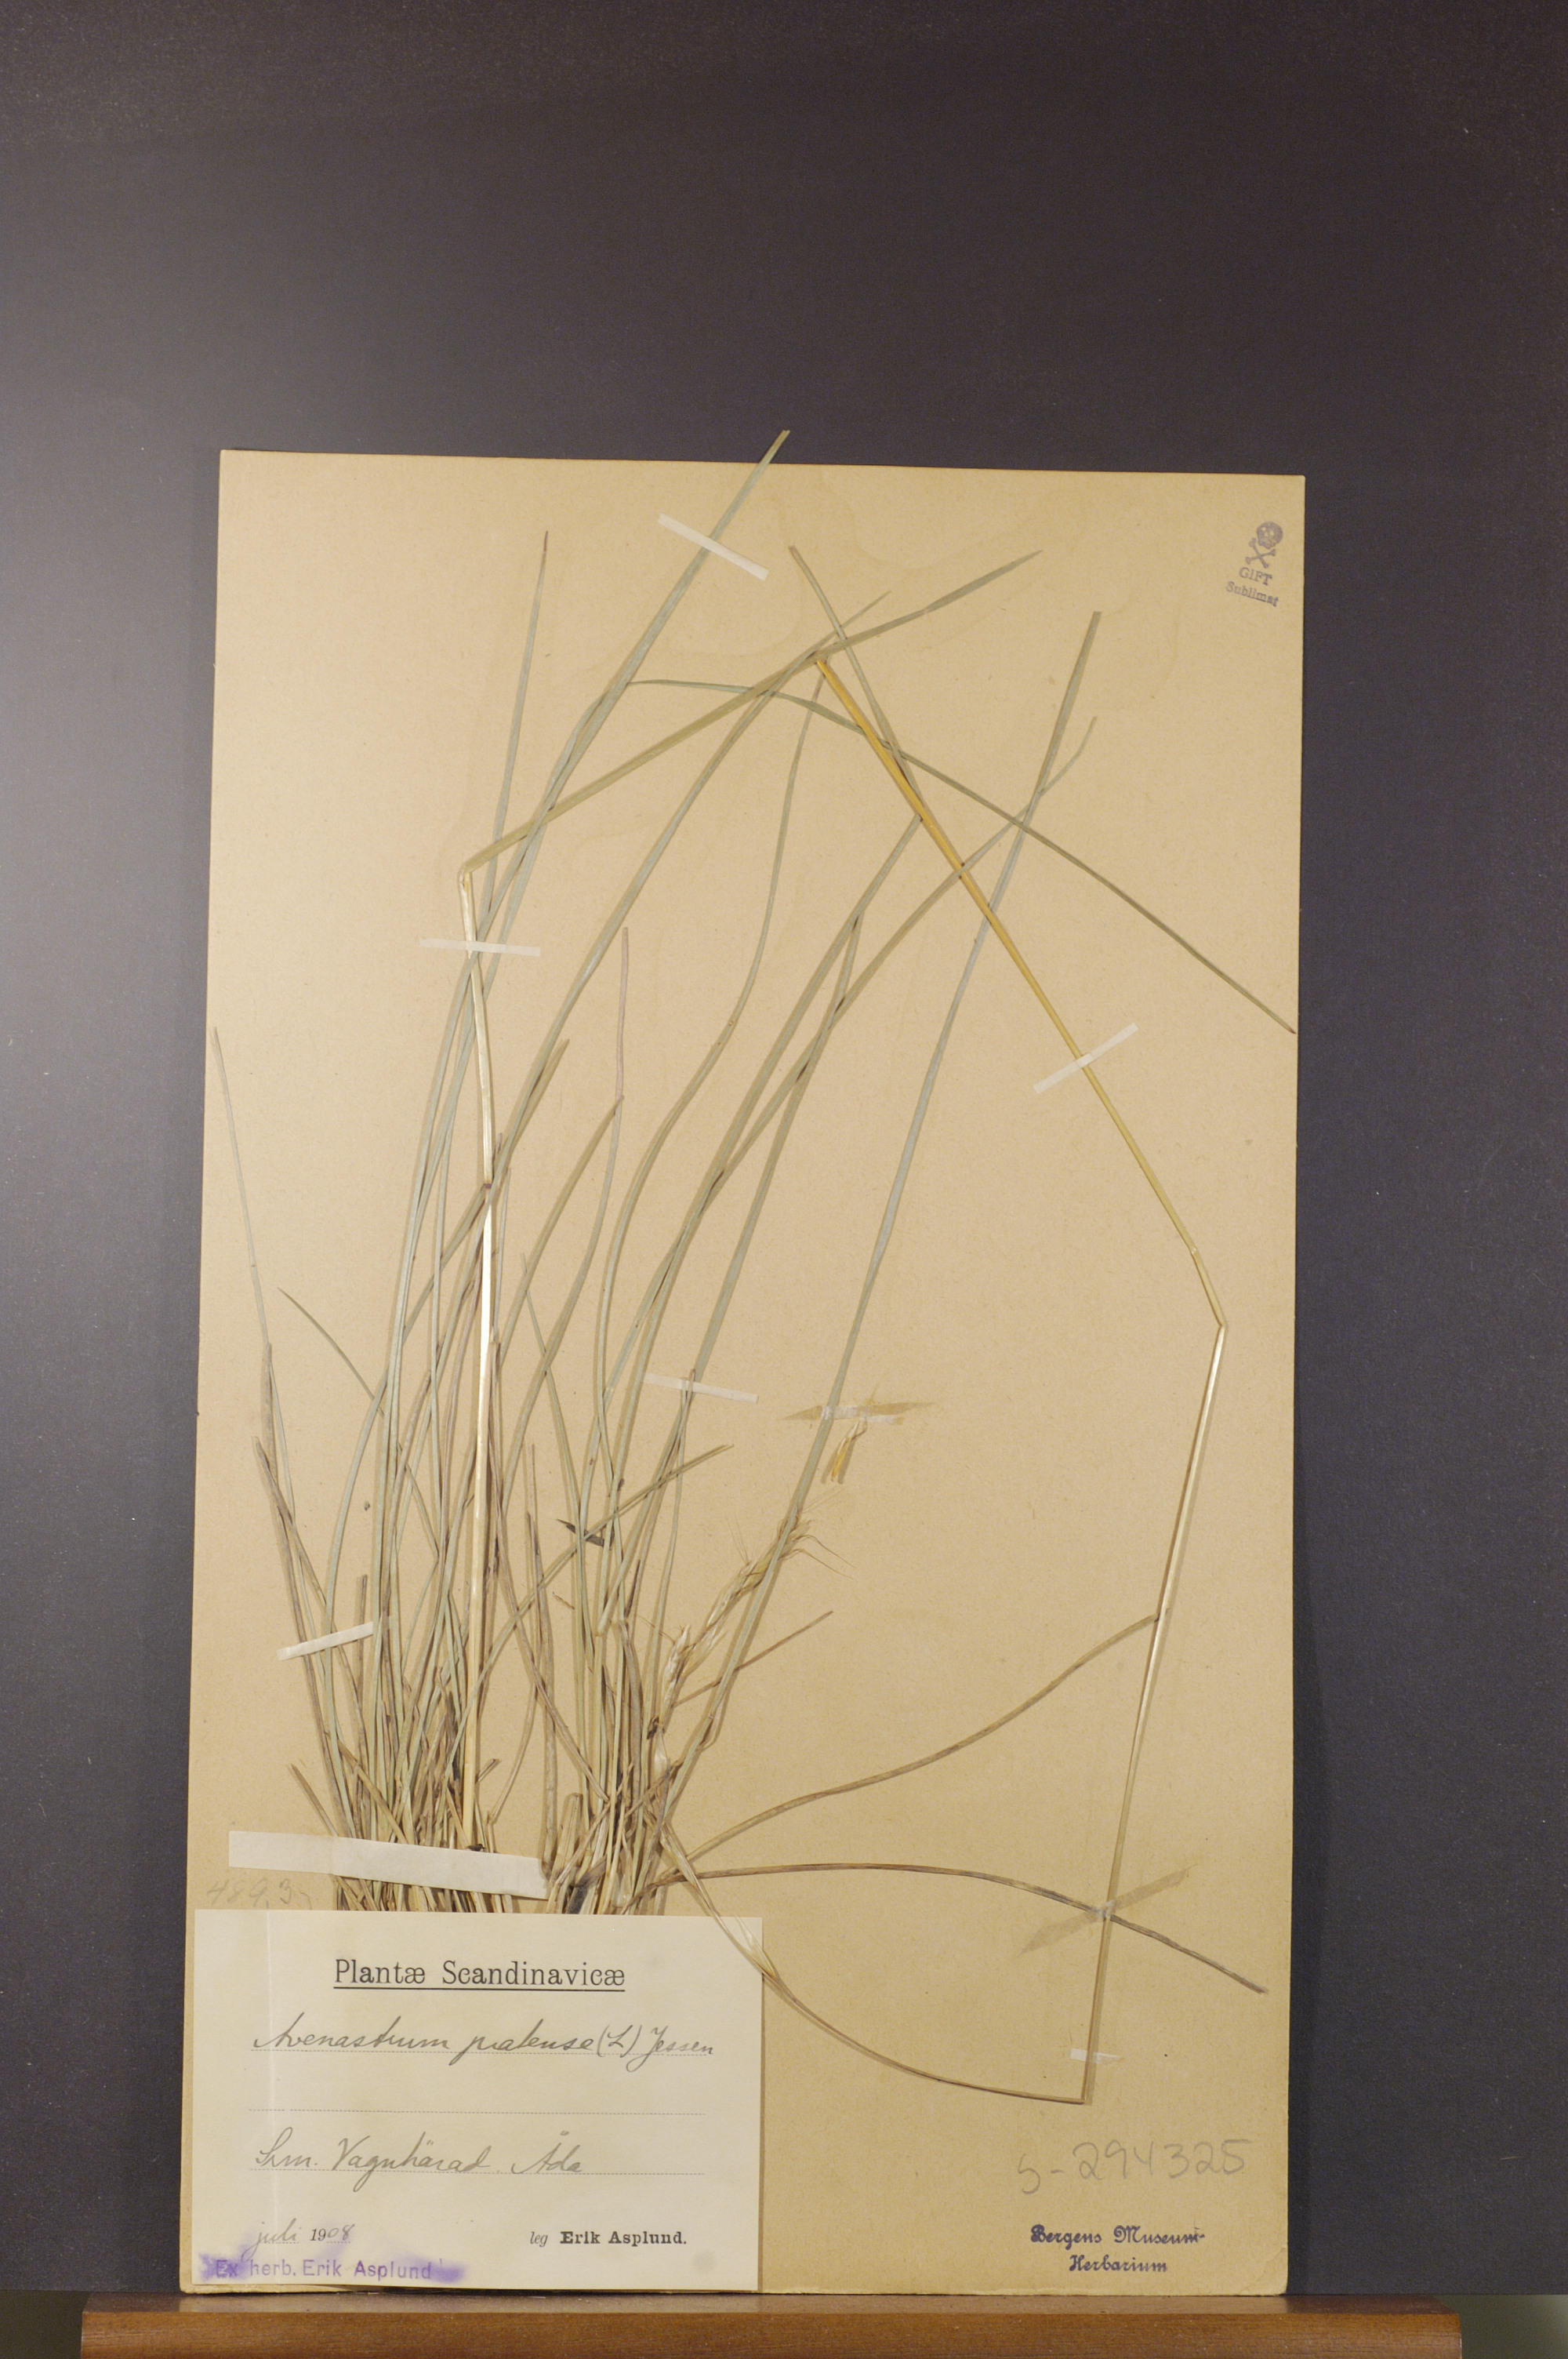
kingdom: Plantae
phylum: Tracheophyta
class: Liliopsida
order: Poales
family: Poaceae
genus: Helictochloa
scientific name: Helictochloa pratensis
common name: Meadow oat grass
